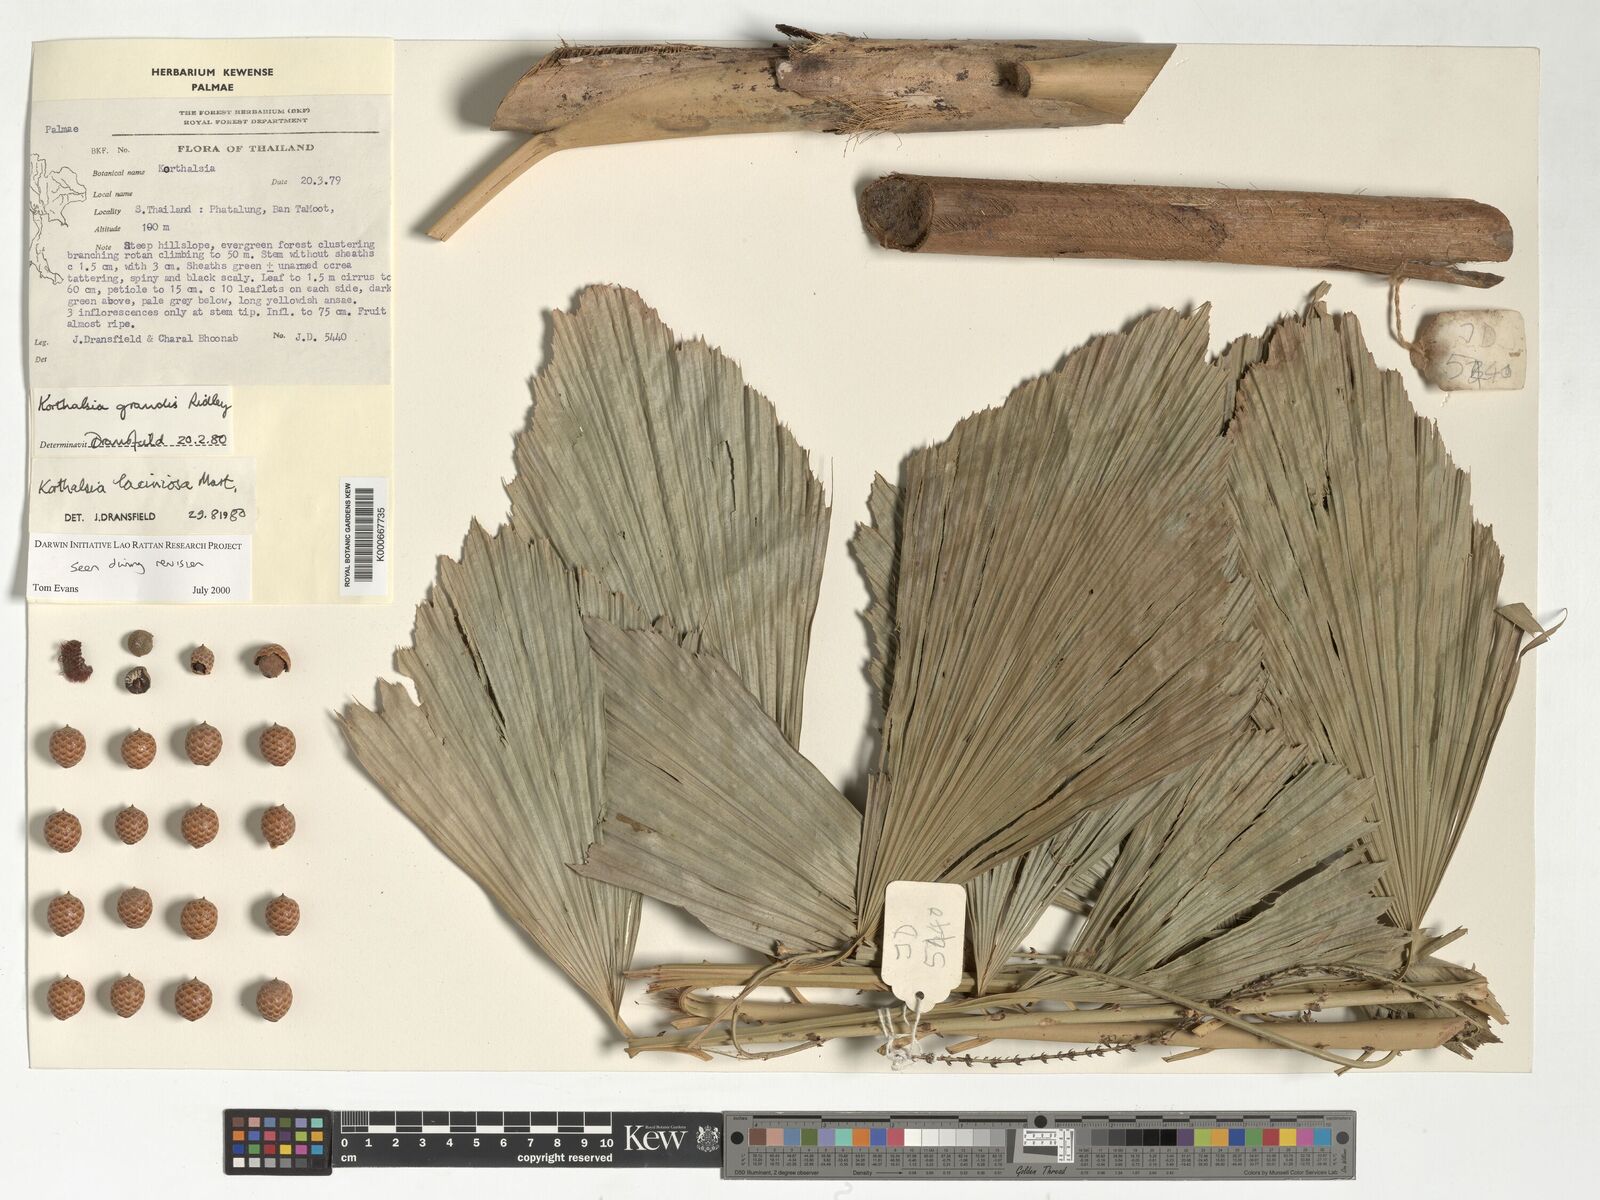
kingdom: Plantae
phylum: Tracheophyta
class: Liliopsida
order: Arecales
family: Arecaceae
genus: Korthalsia
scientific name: Korthalsia laciniosa
